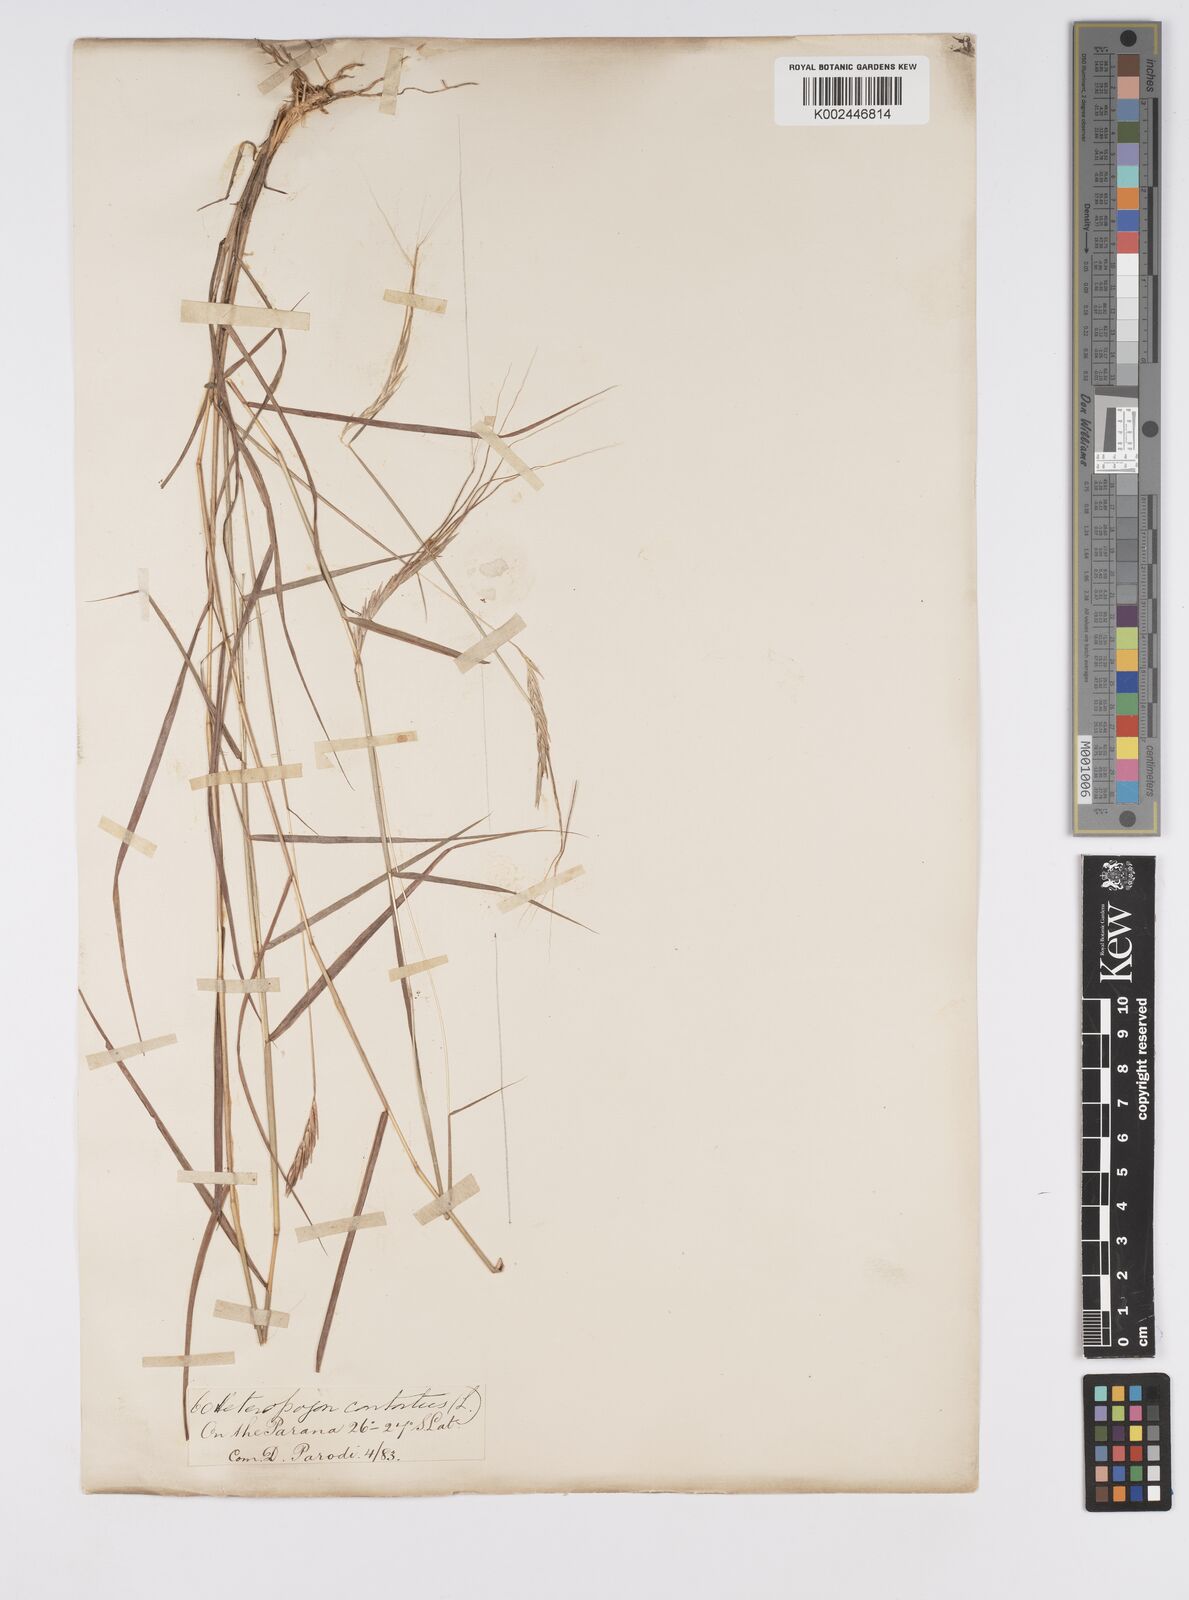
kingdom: Plantae
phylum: Tracheophyta
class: Liliopsida
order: Poales
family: Poaceae
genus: Agenium
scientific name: Agenium leptocladum
